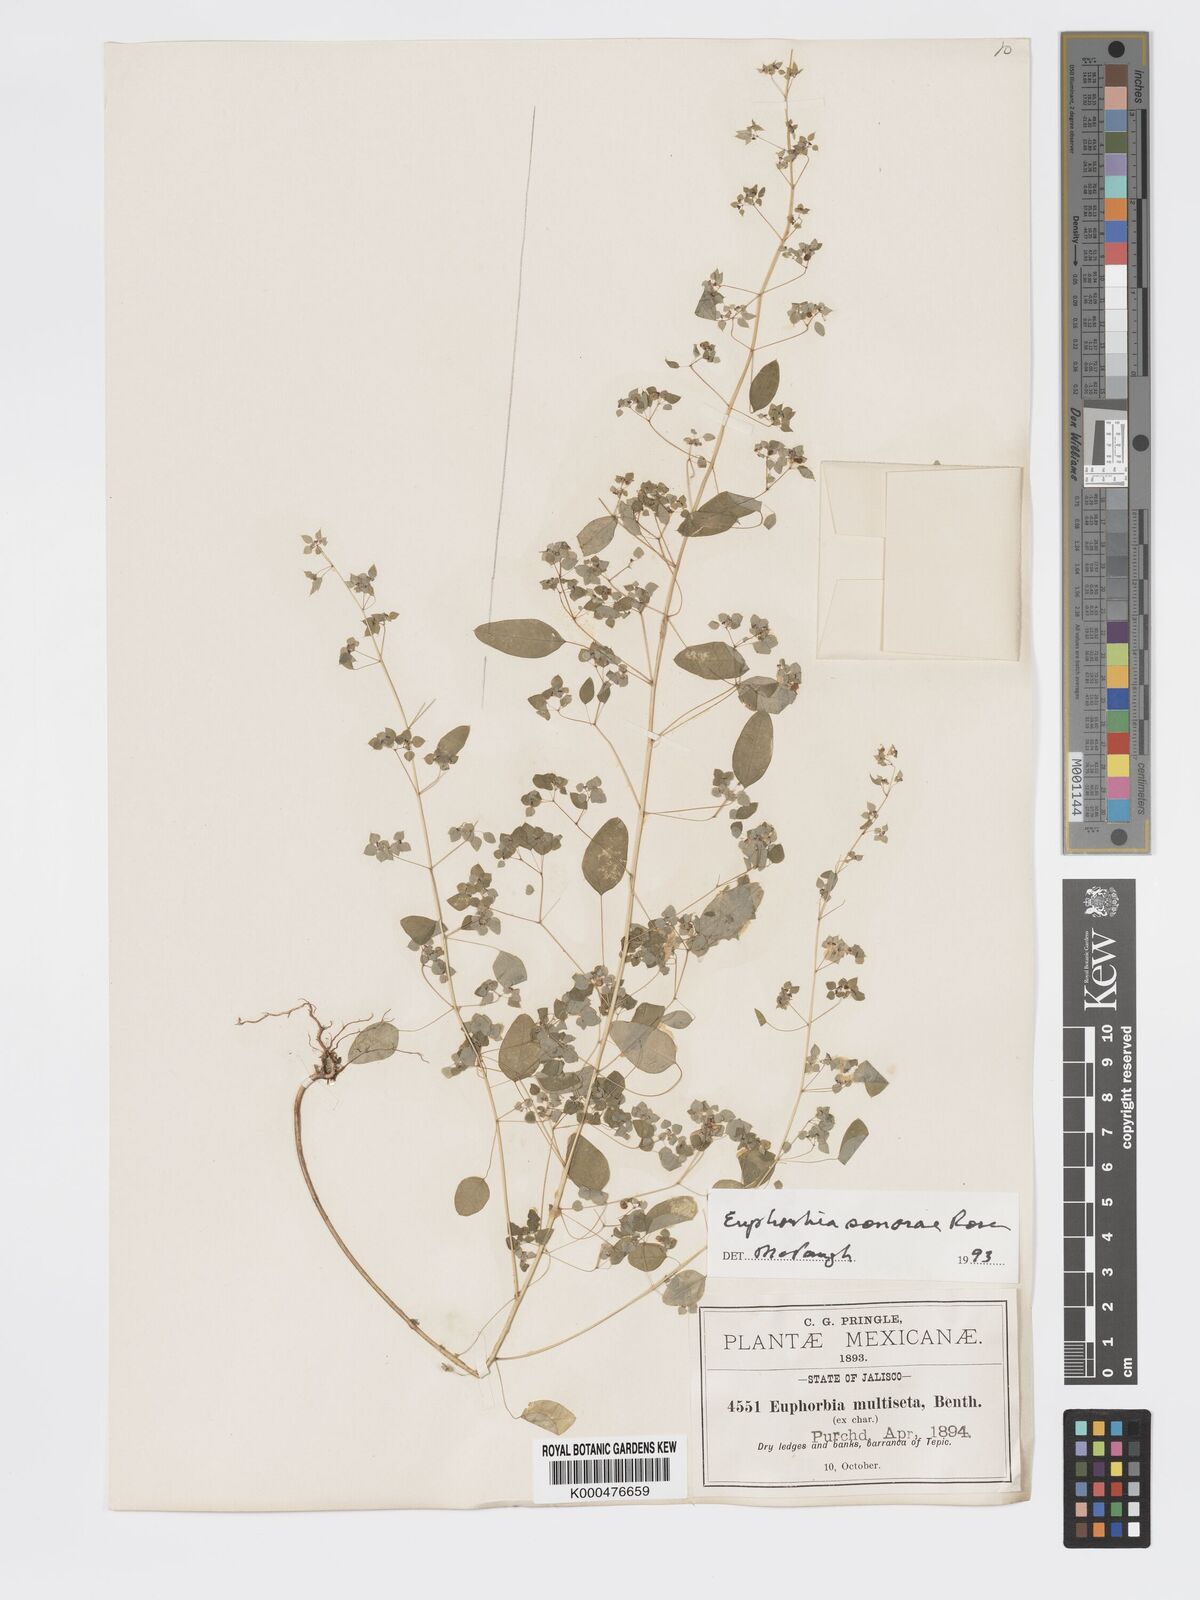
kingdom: Plantae
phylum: Tracheophyta
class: Magnoliopsida
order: Malpighiales
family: Euphorbiaceae
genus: Euphorbia
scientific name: Euphorbia adiantoides
